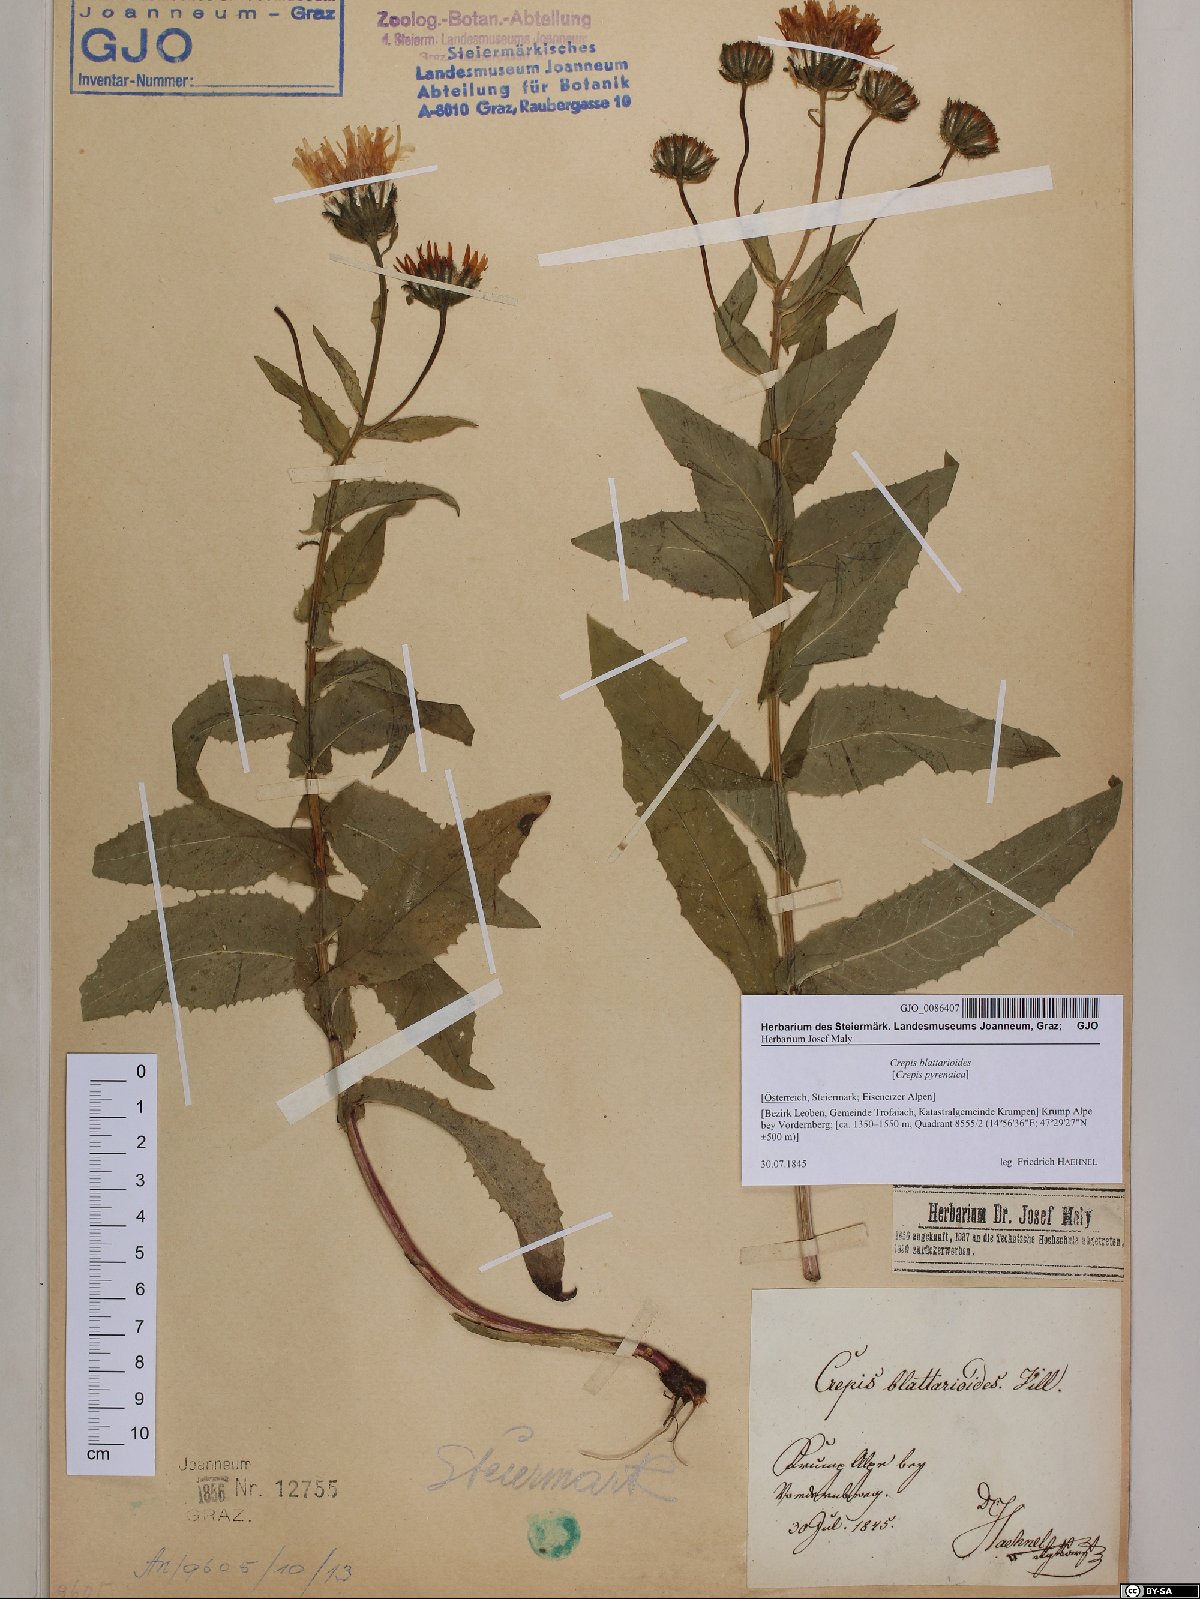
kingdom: Plantae
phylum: Tracheophyta
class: Magnoliopsida
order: Asterales
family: Asteraceae
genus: Crepis
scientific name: Crepis blattarioides
